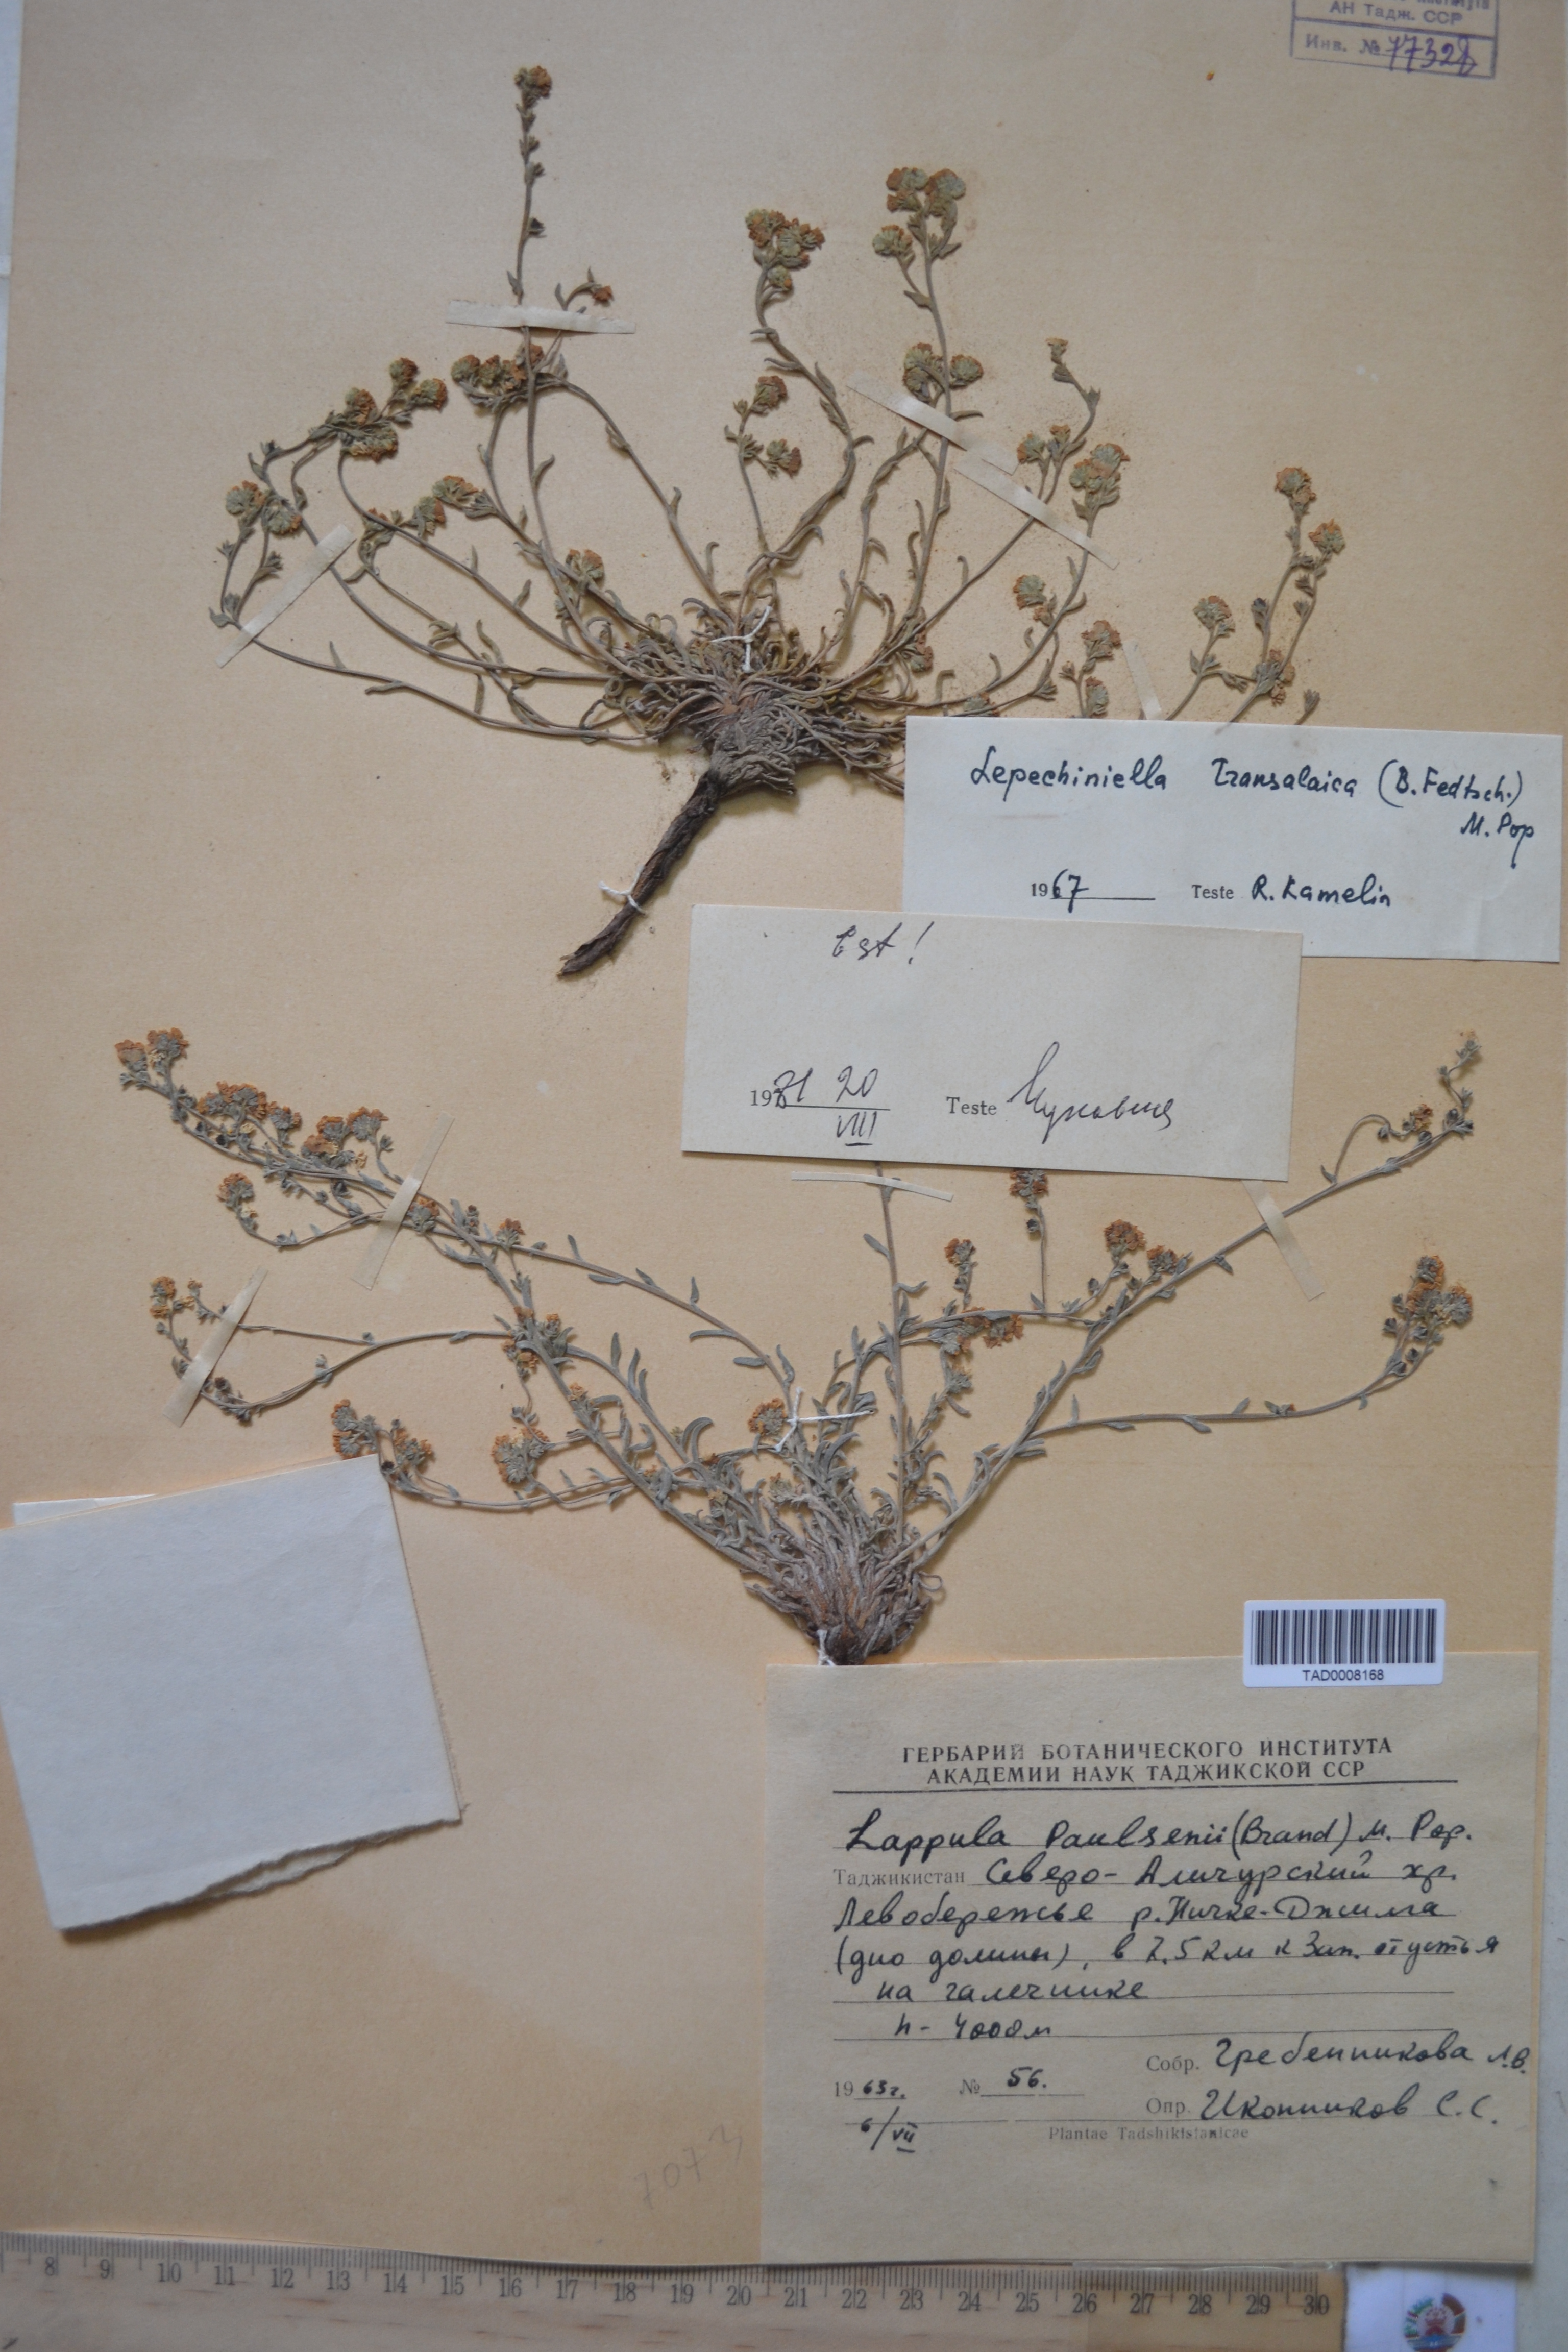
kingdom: Plantae
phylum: Tracheophyta
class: Magnoliopsida
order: Boraginales
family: Boraginaceae
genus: Lappula
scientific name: Lappula paulsenii
